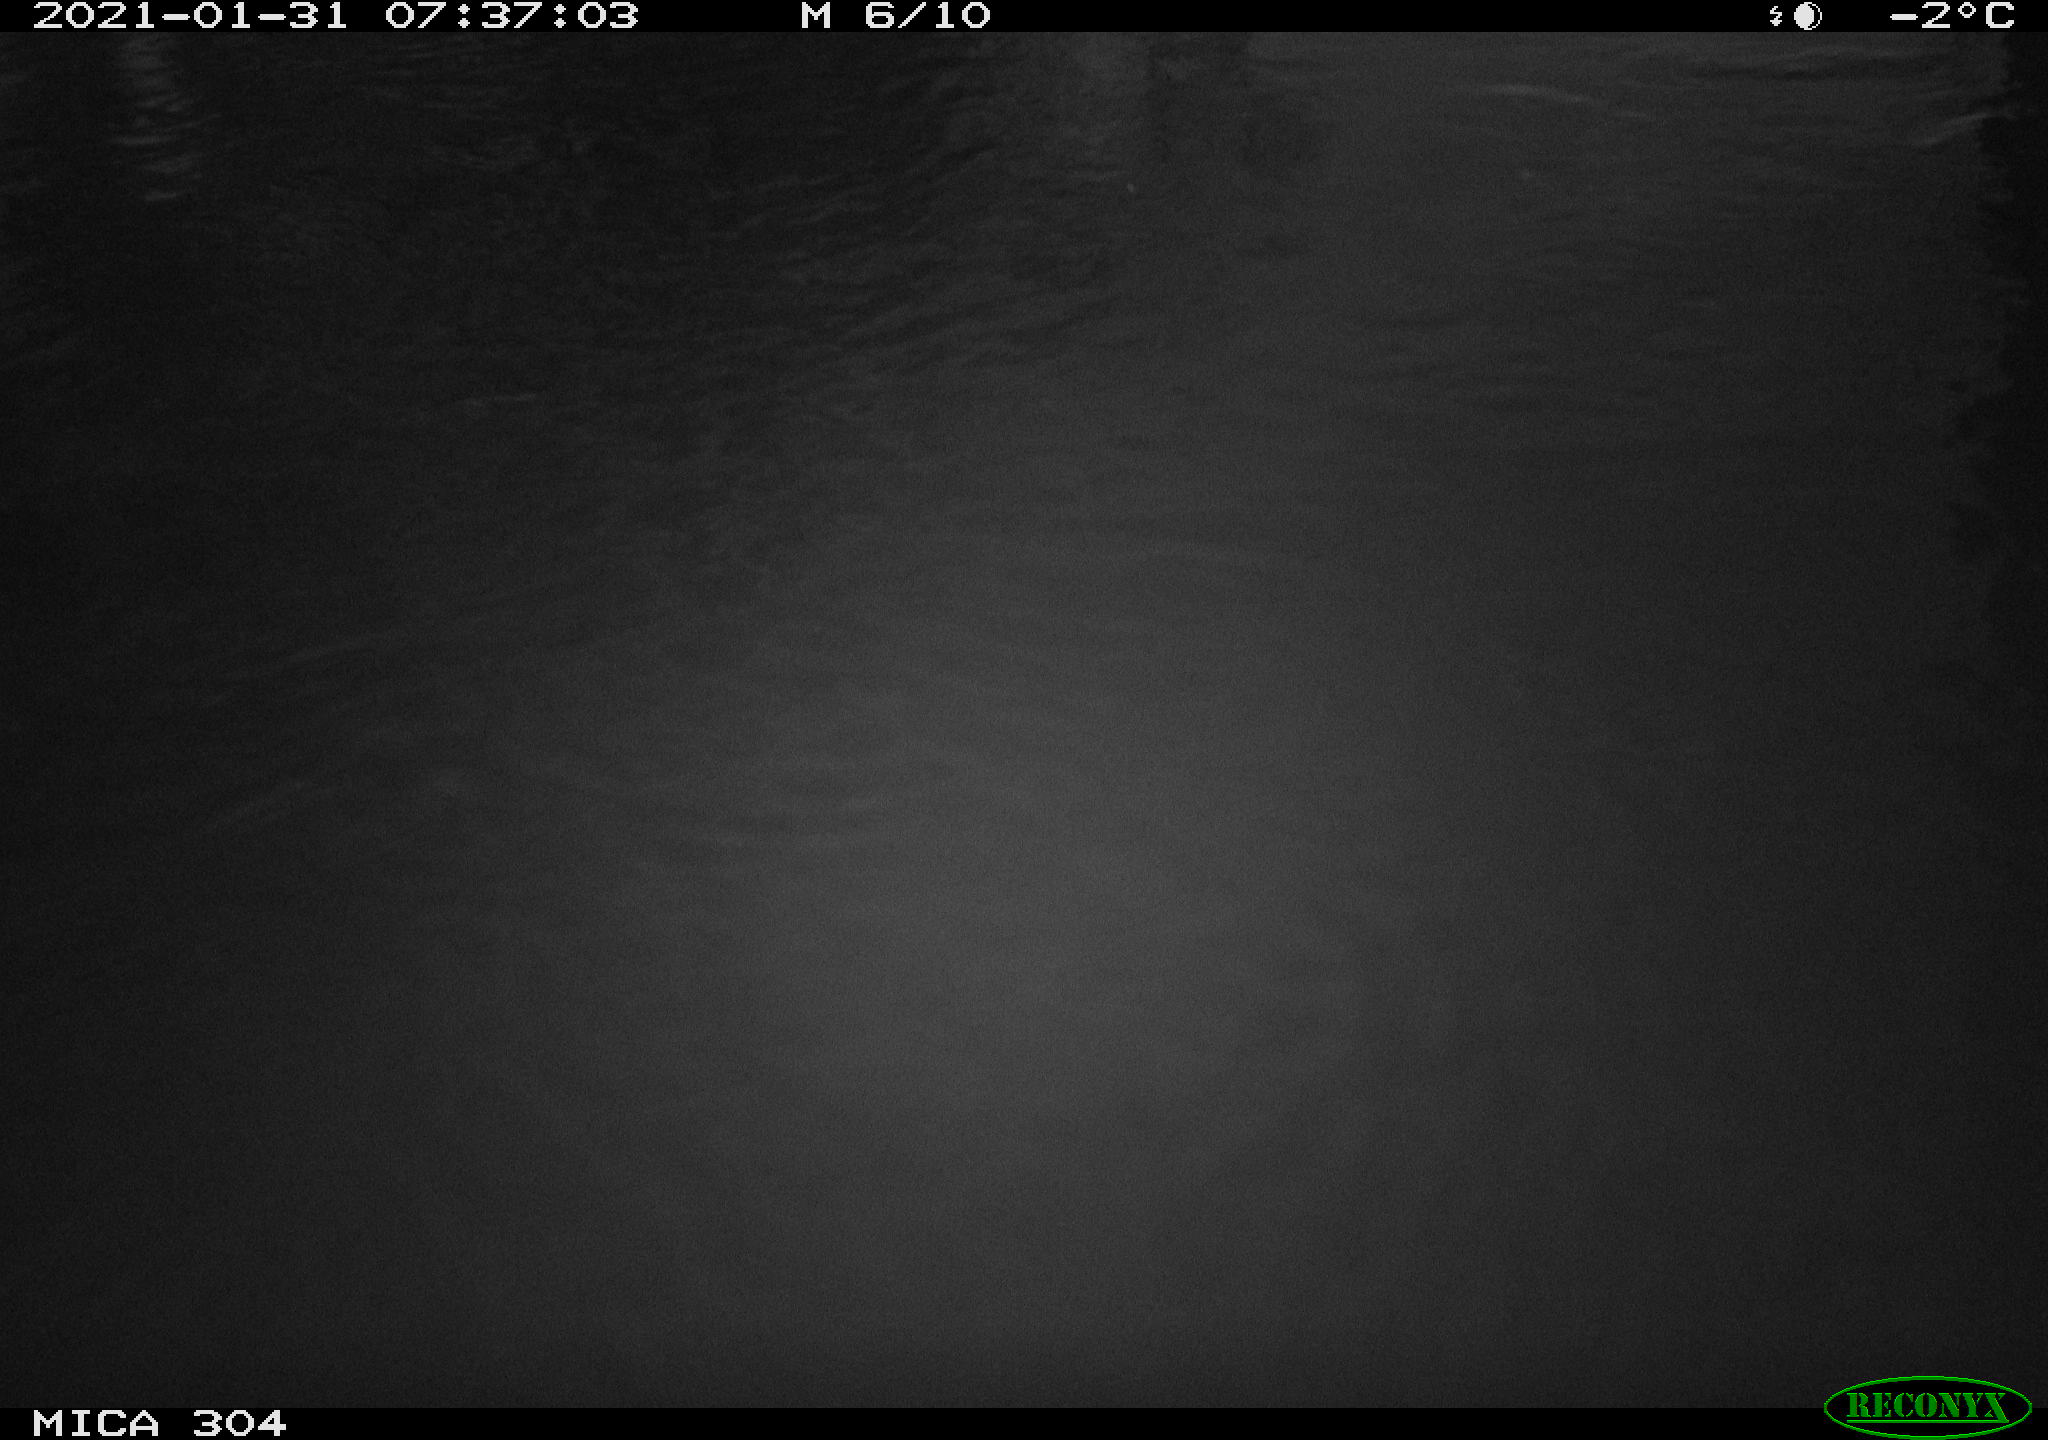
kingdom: Animalia
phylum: Chordata
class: Mammalia
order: Rodentia
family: Muridae
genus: Rattus
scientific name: Rattus norvegicus
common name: Brown rat
